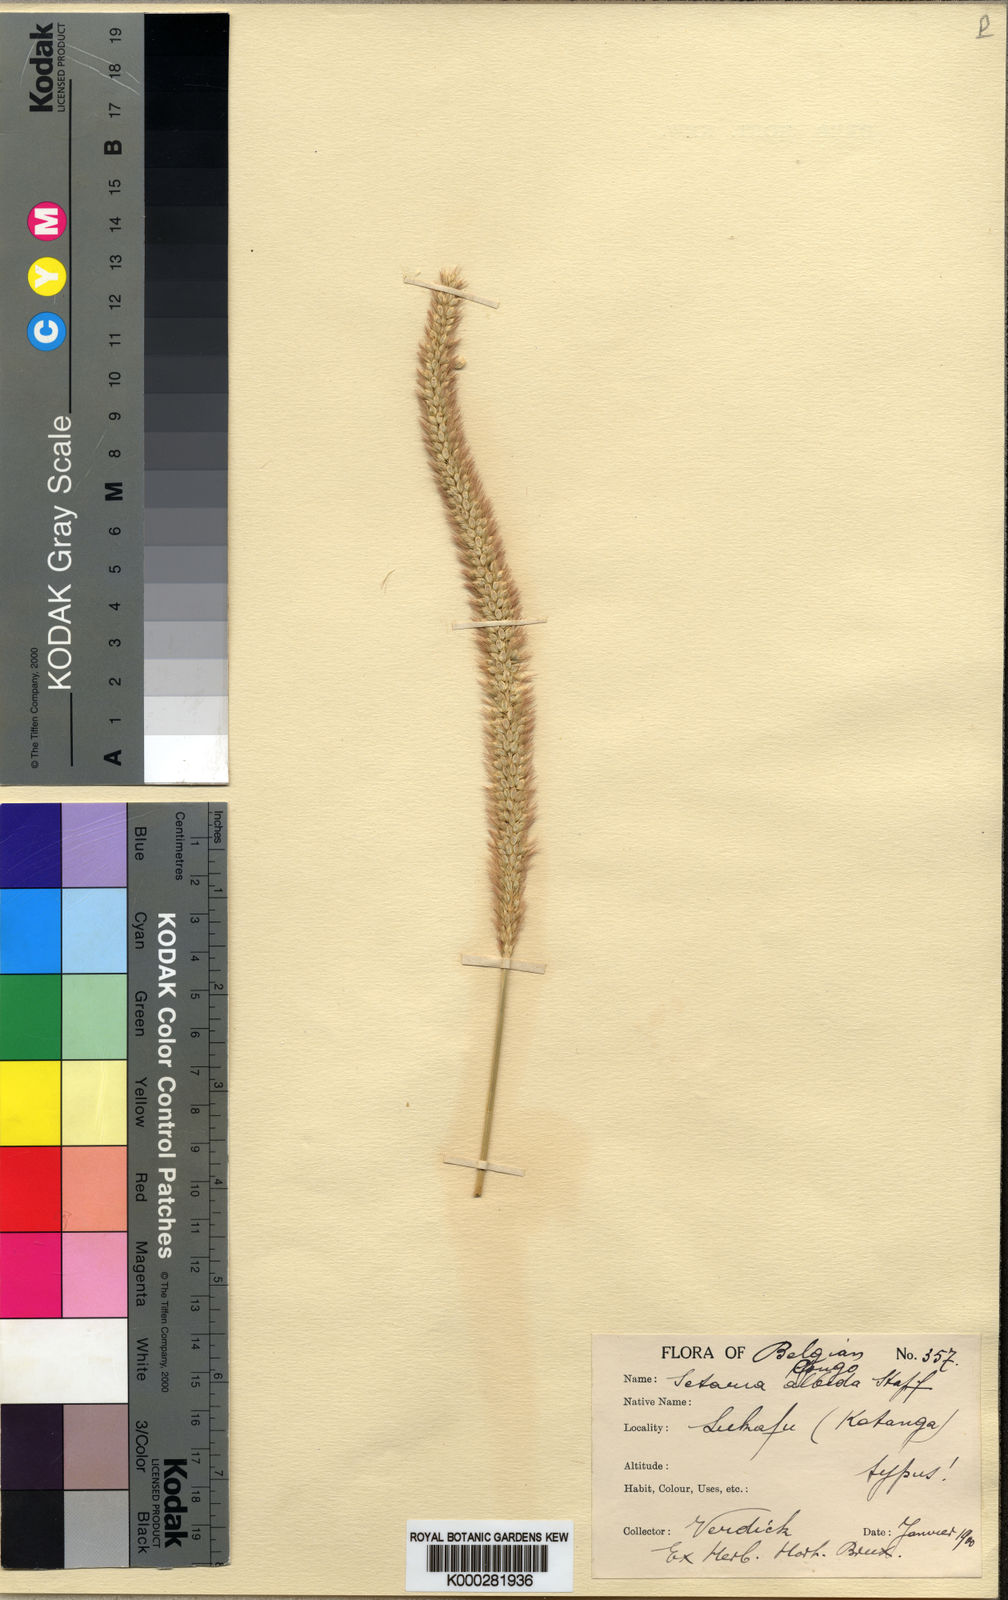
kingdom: Plantae
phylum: Tracheophyta
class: Liliopsida
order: Poales
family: Poaceae
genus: Setaria
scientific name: Setaria incrassata
